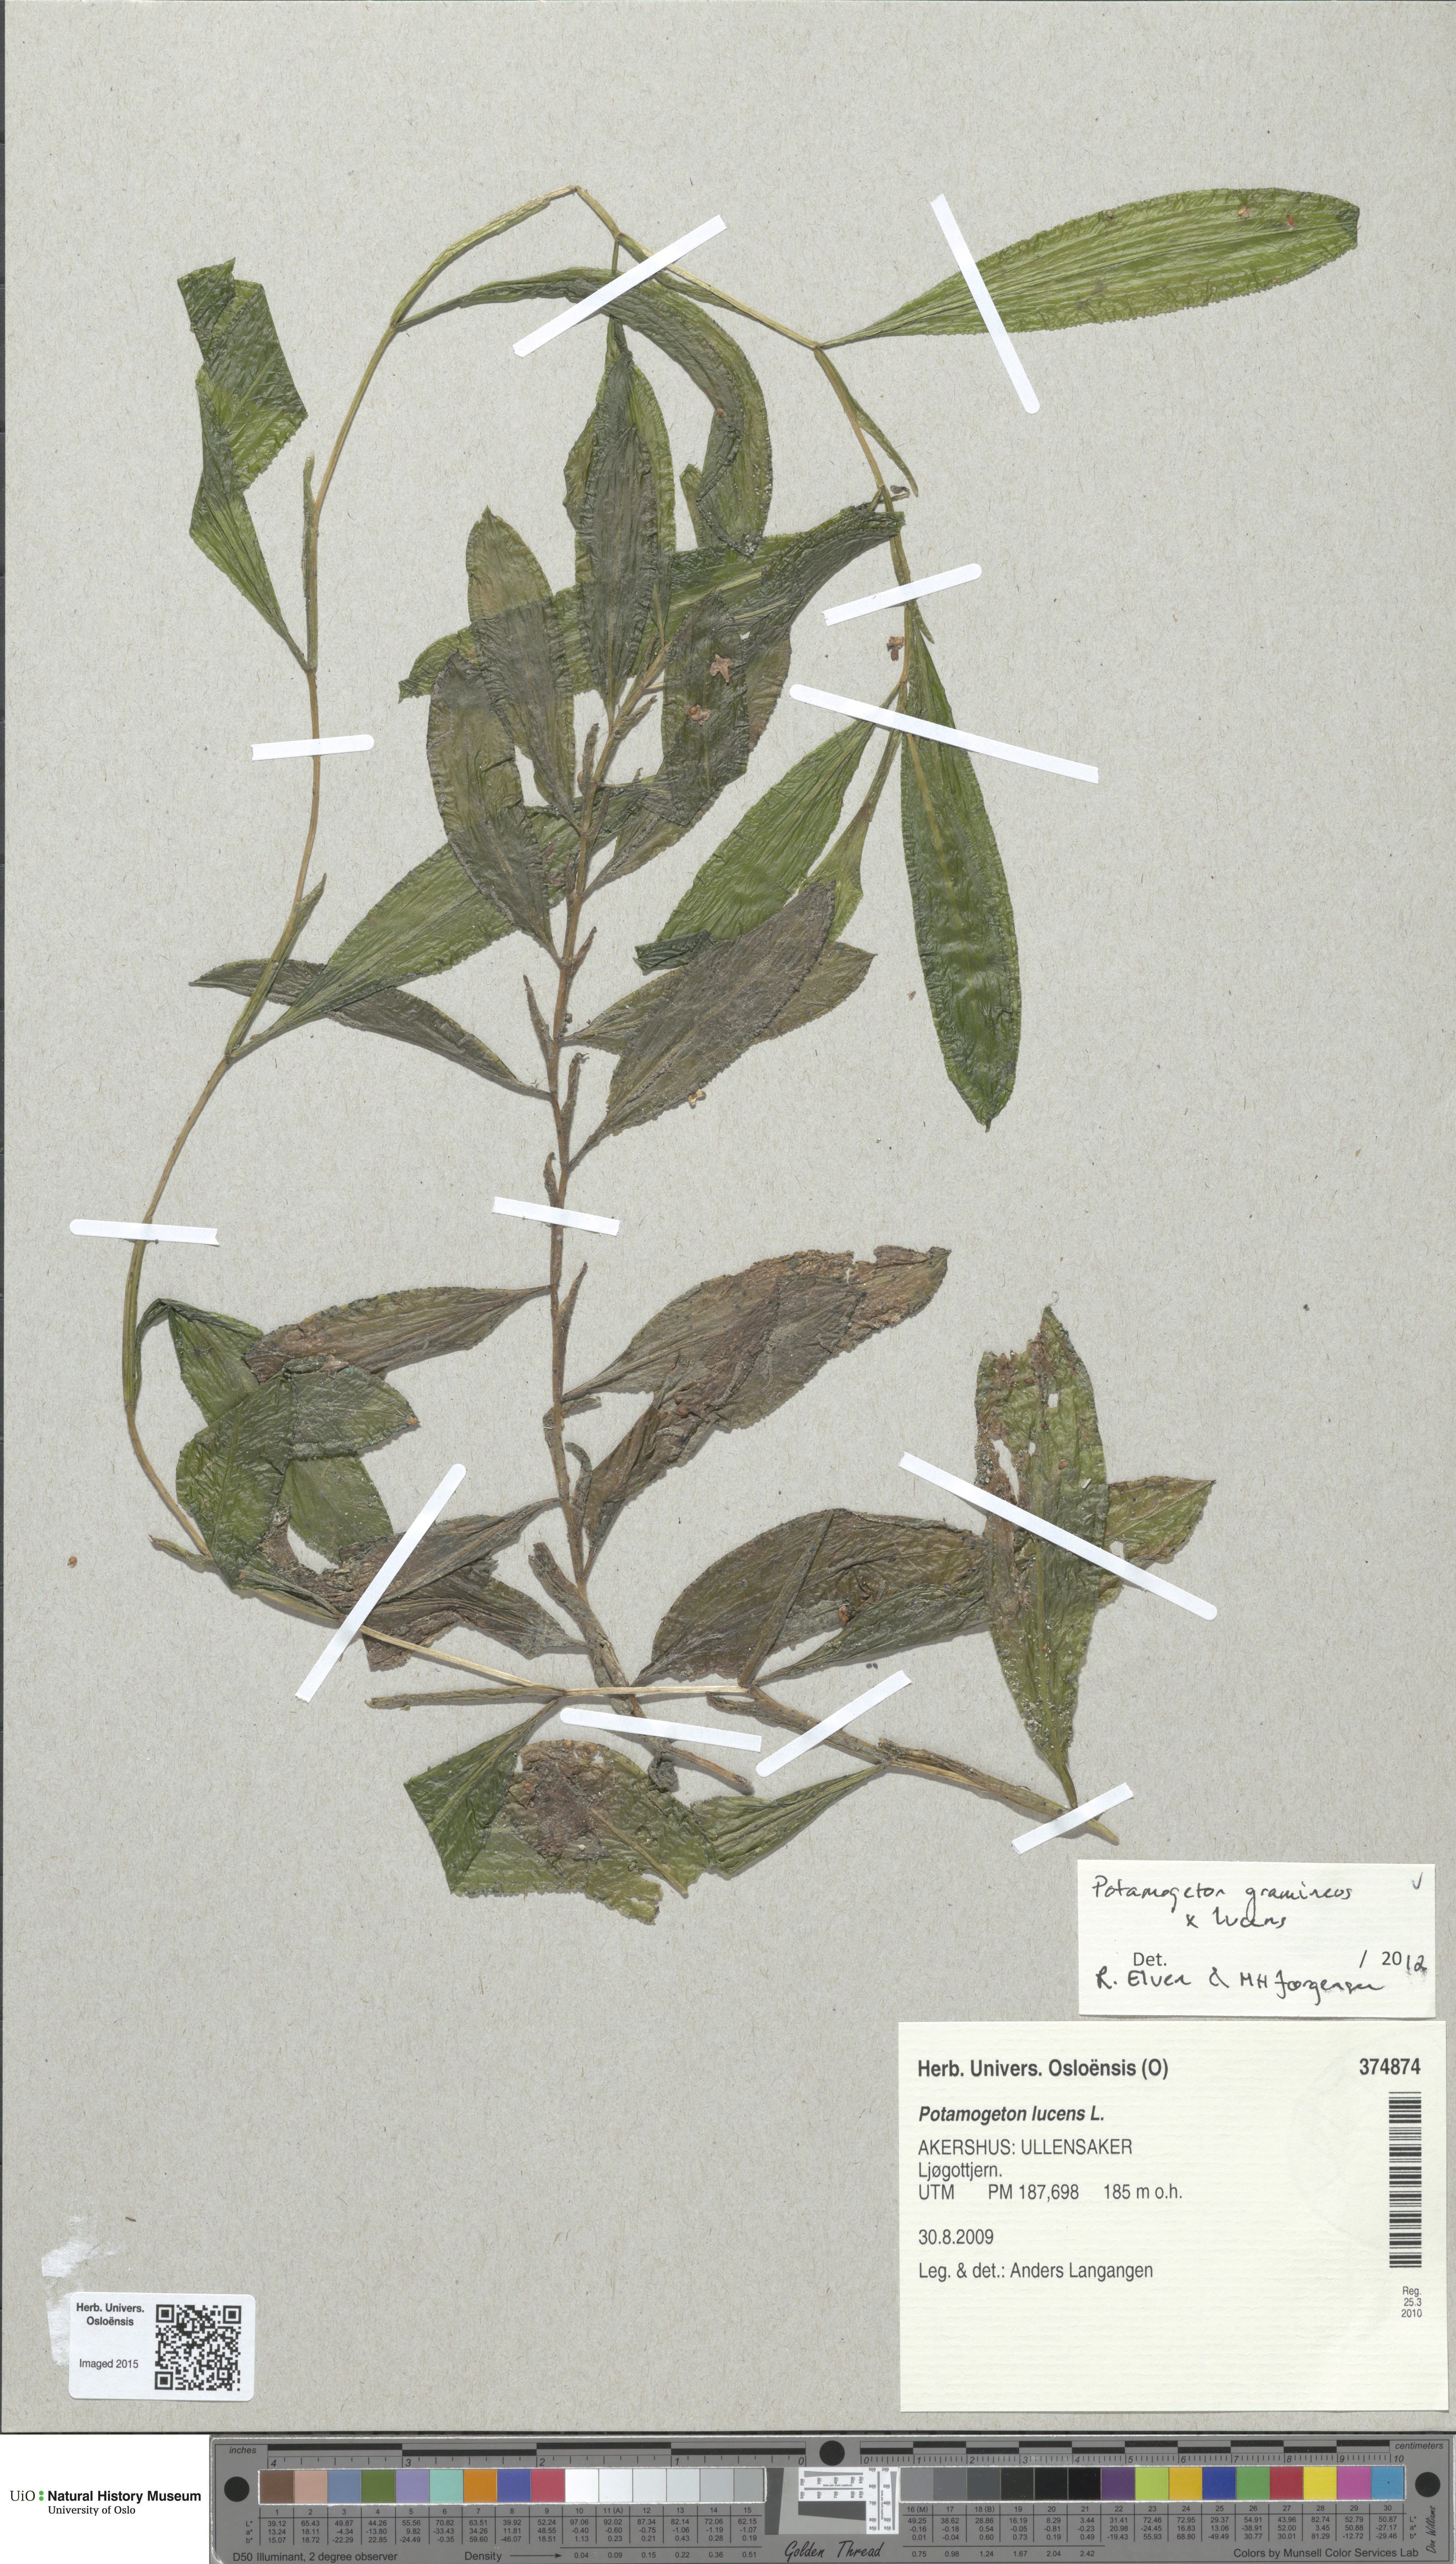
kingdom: Plantae
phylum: Tracheophyta
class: Liliopsida
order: Alismatales
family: Potamogetonaceae
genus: Potamogeton
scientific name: Potamogeton angustifolius
